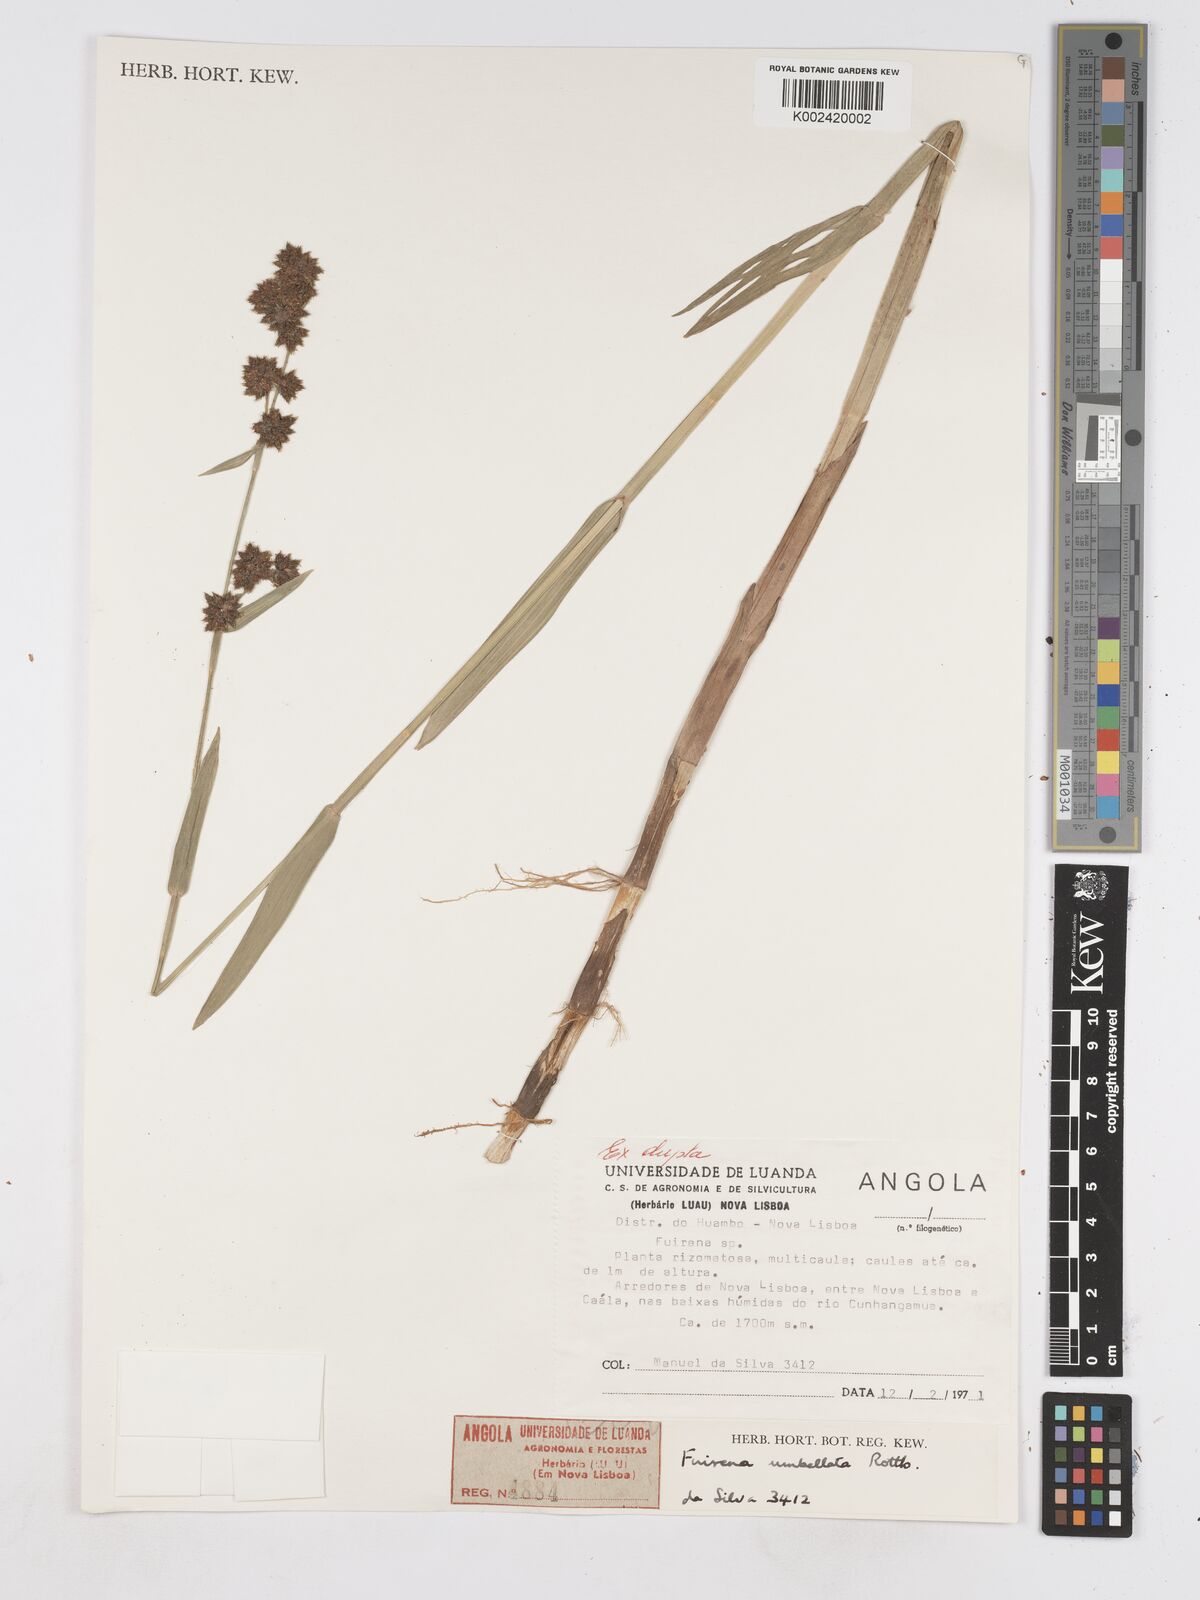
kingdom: Plantae
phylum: Tracheophyta
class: Liliopsida
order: Poales
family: Cyperaceae
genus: Fuirena
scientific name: Fuirena umbellata
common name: Yefen
